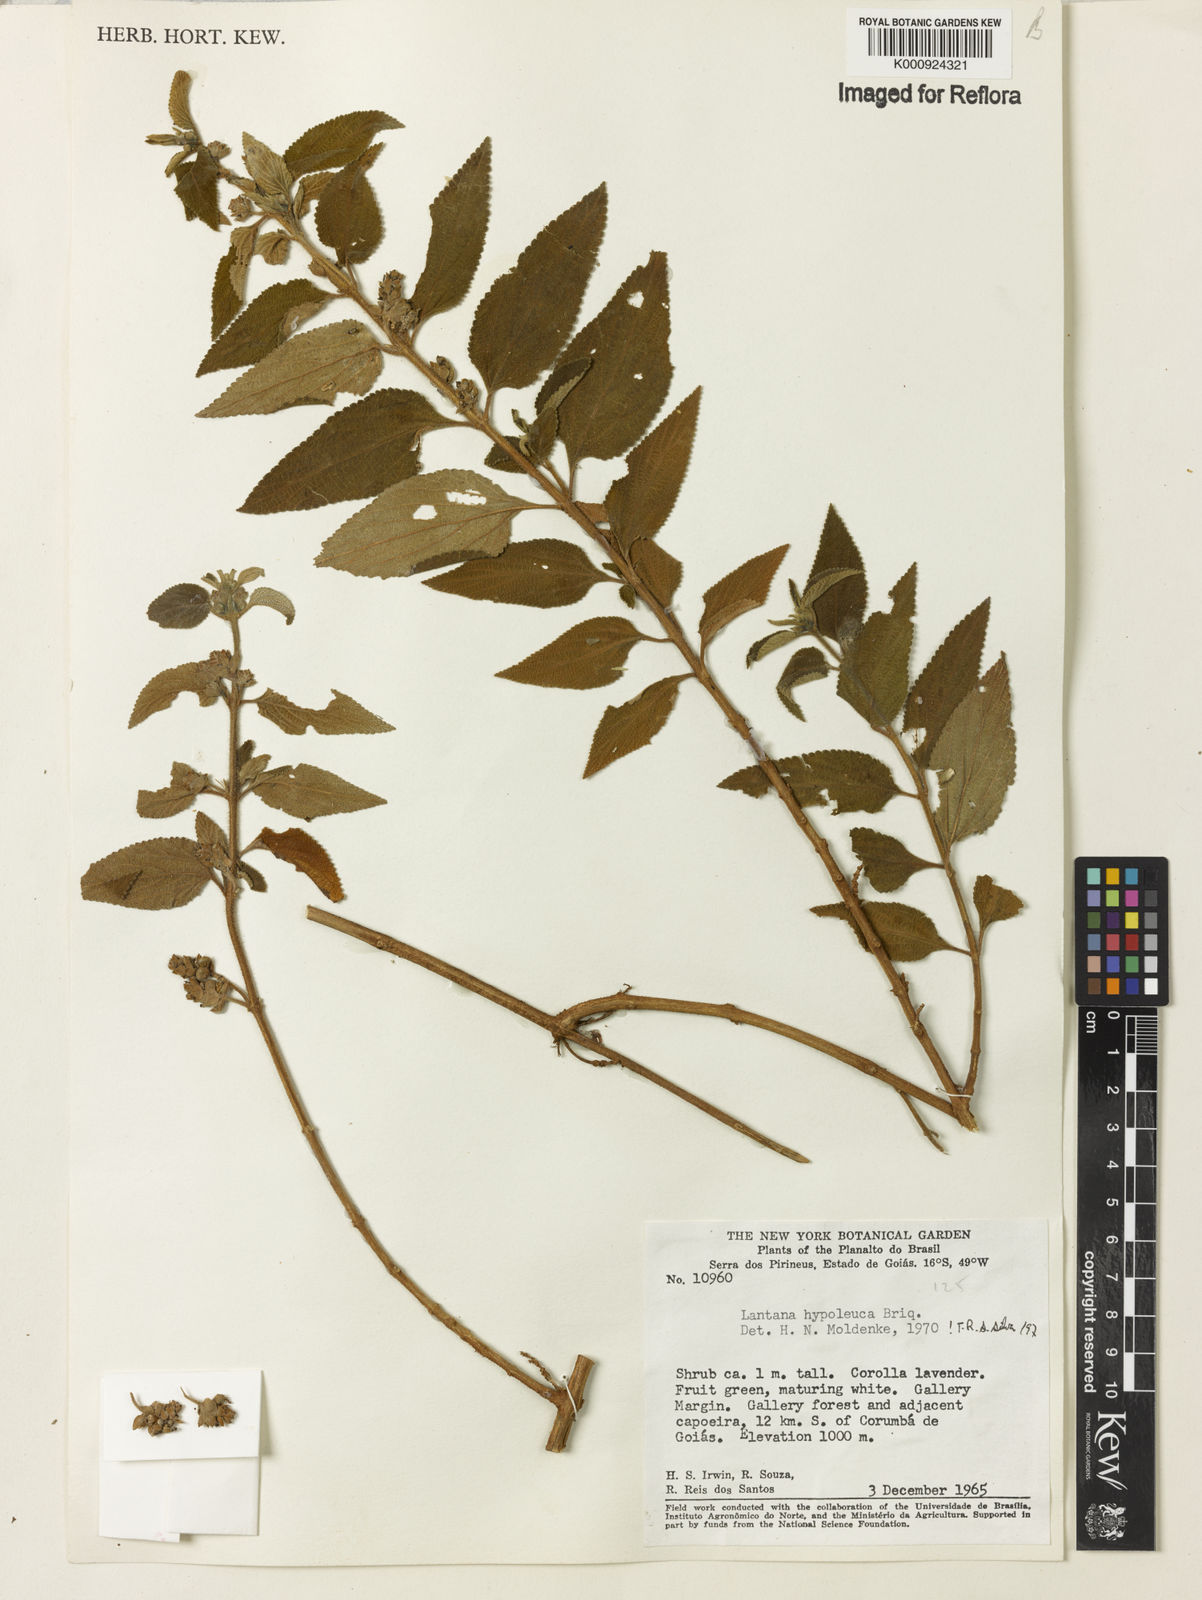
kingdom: Plantae
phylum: Tracheophyta
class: Magnoliopsida
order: Lamiales
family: Verbenaceae
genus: Lantana
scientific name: Lantana hypoleuca
